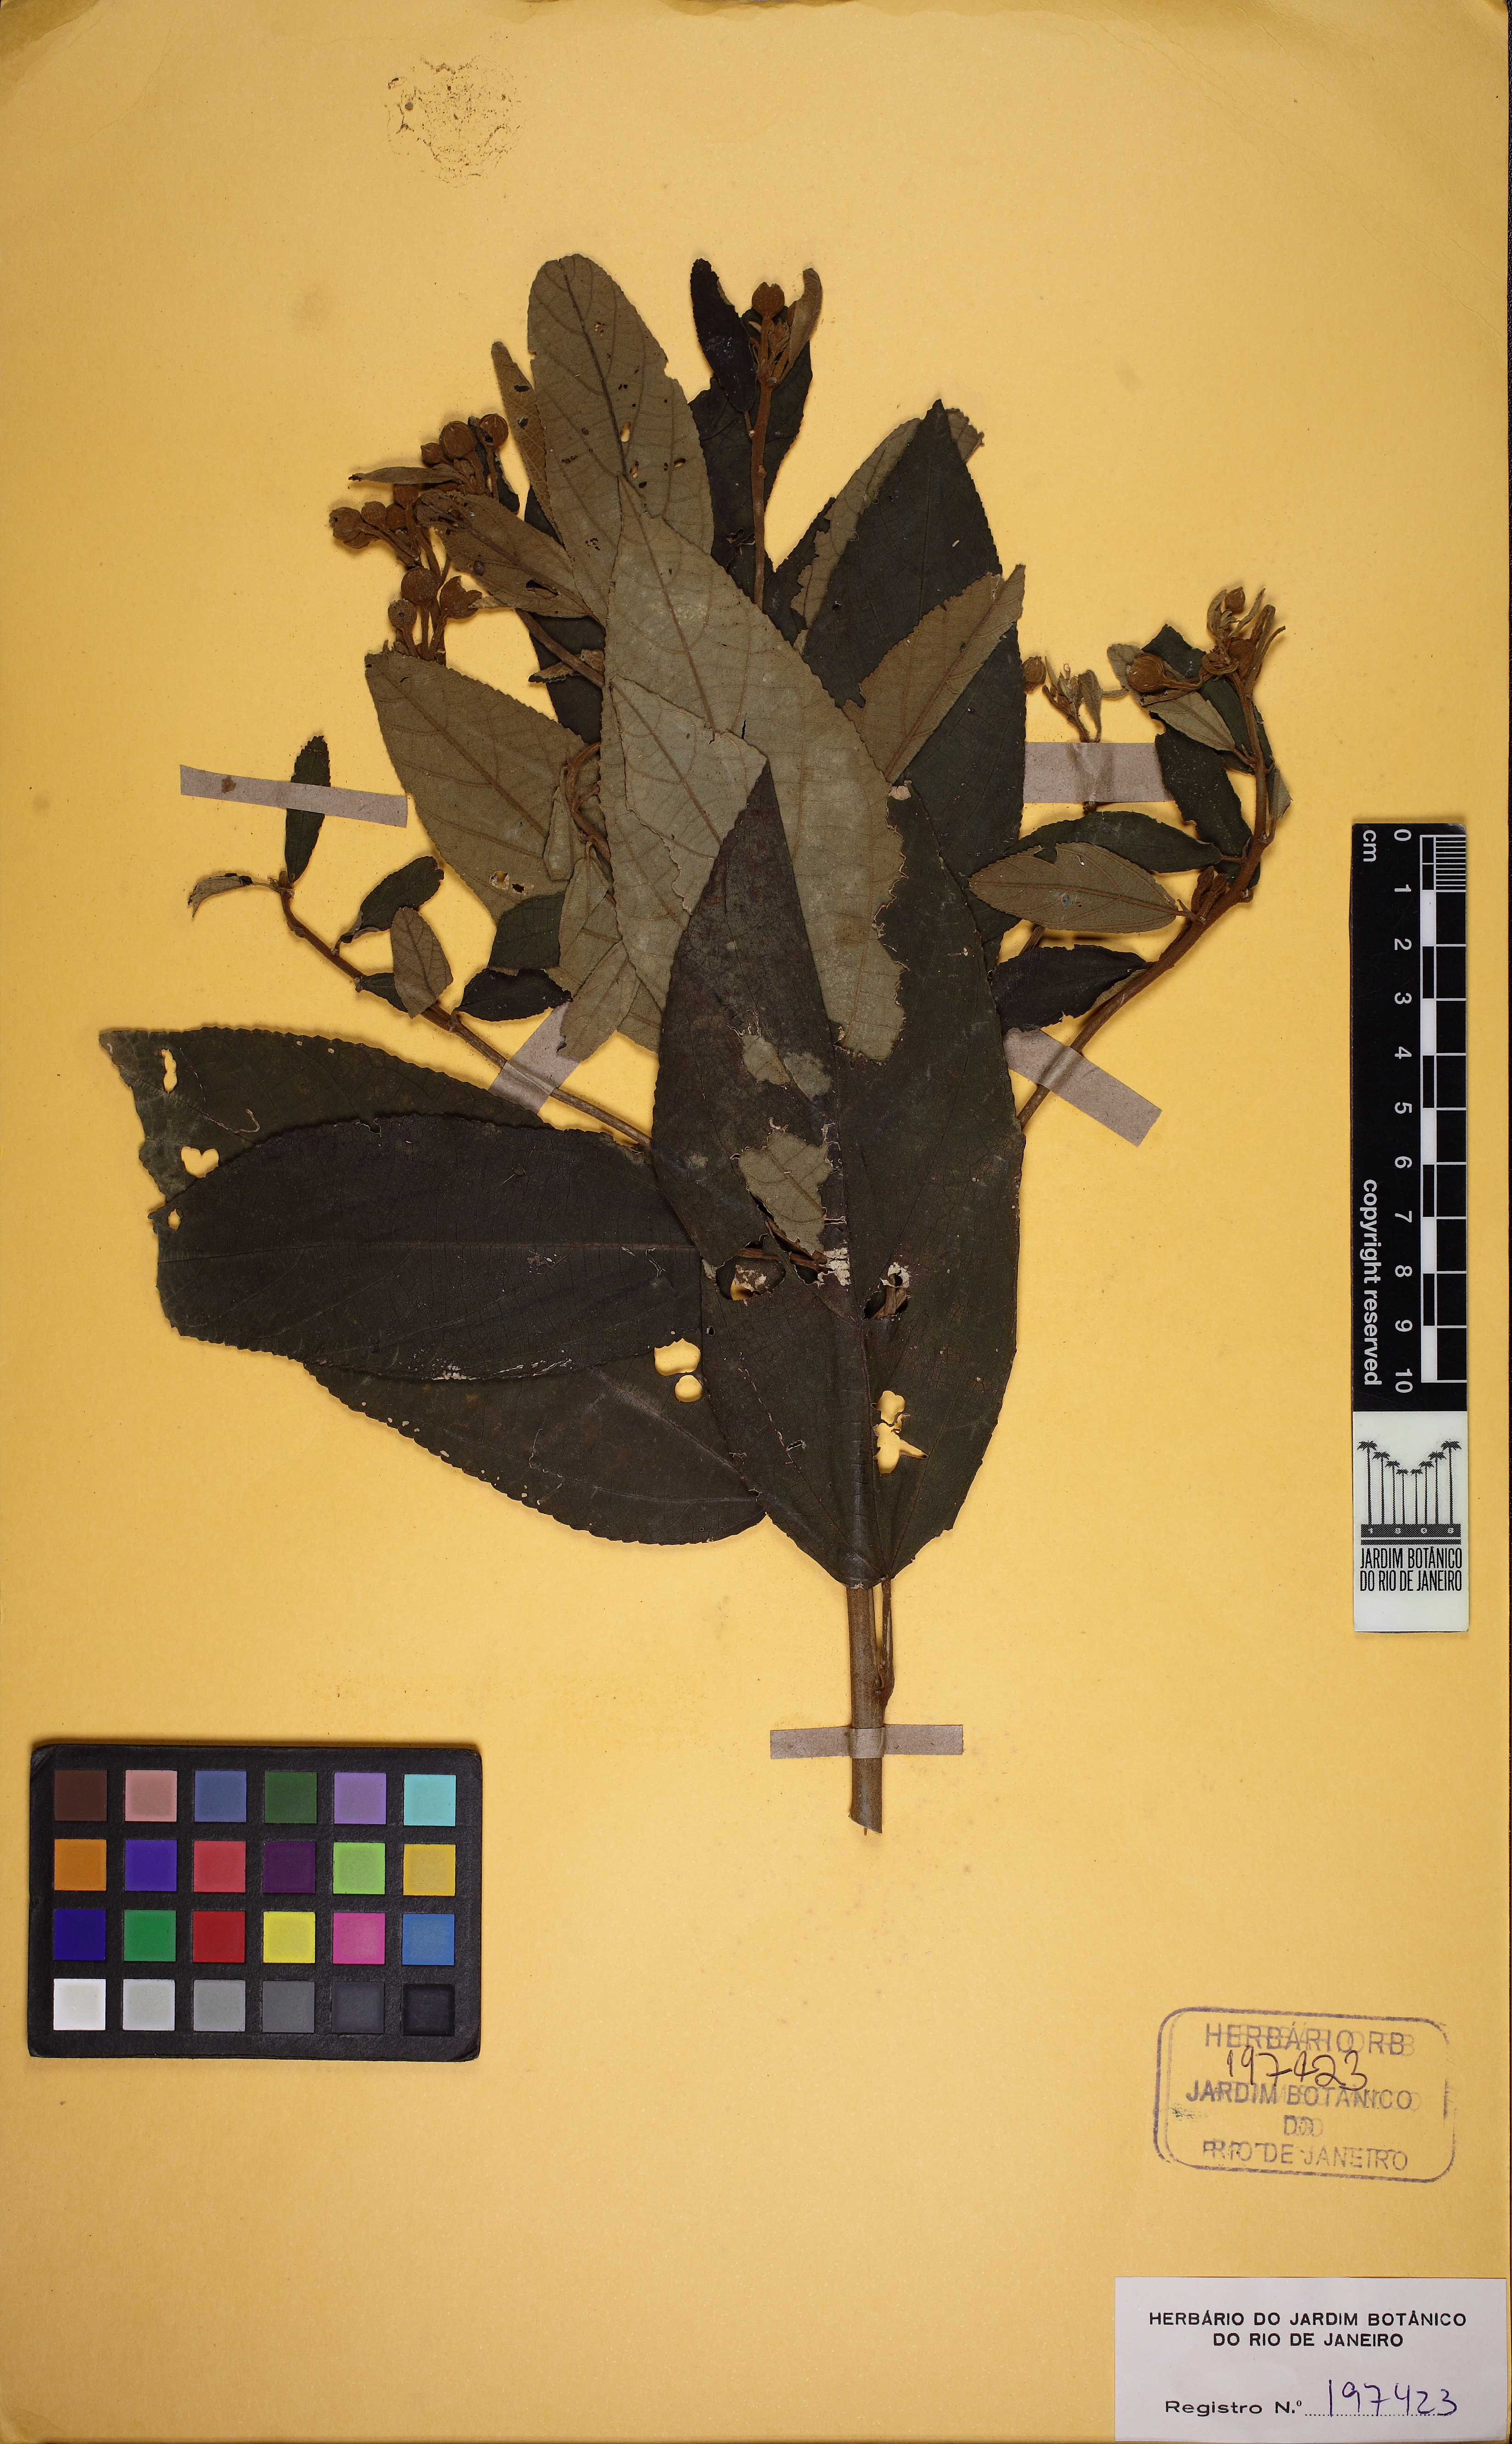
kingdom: Plantae
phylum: Tracheophyta
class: Magnoliopsida
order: Malvales
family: Malvaceae
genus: Callianthe
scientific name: Callianthe rufinerva
